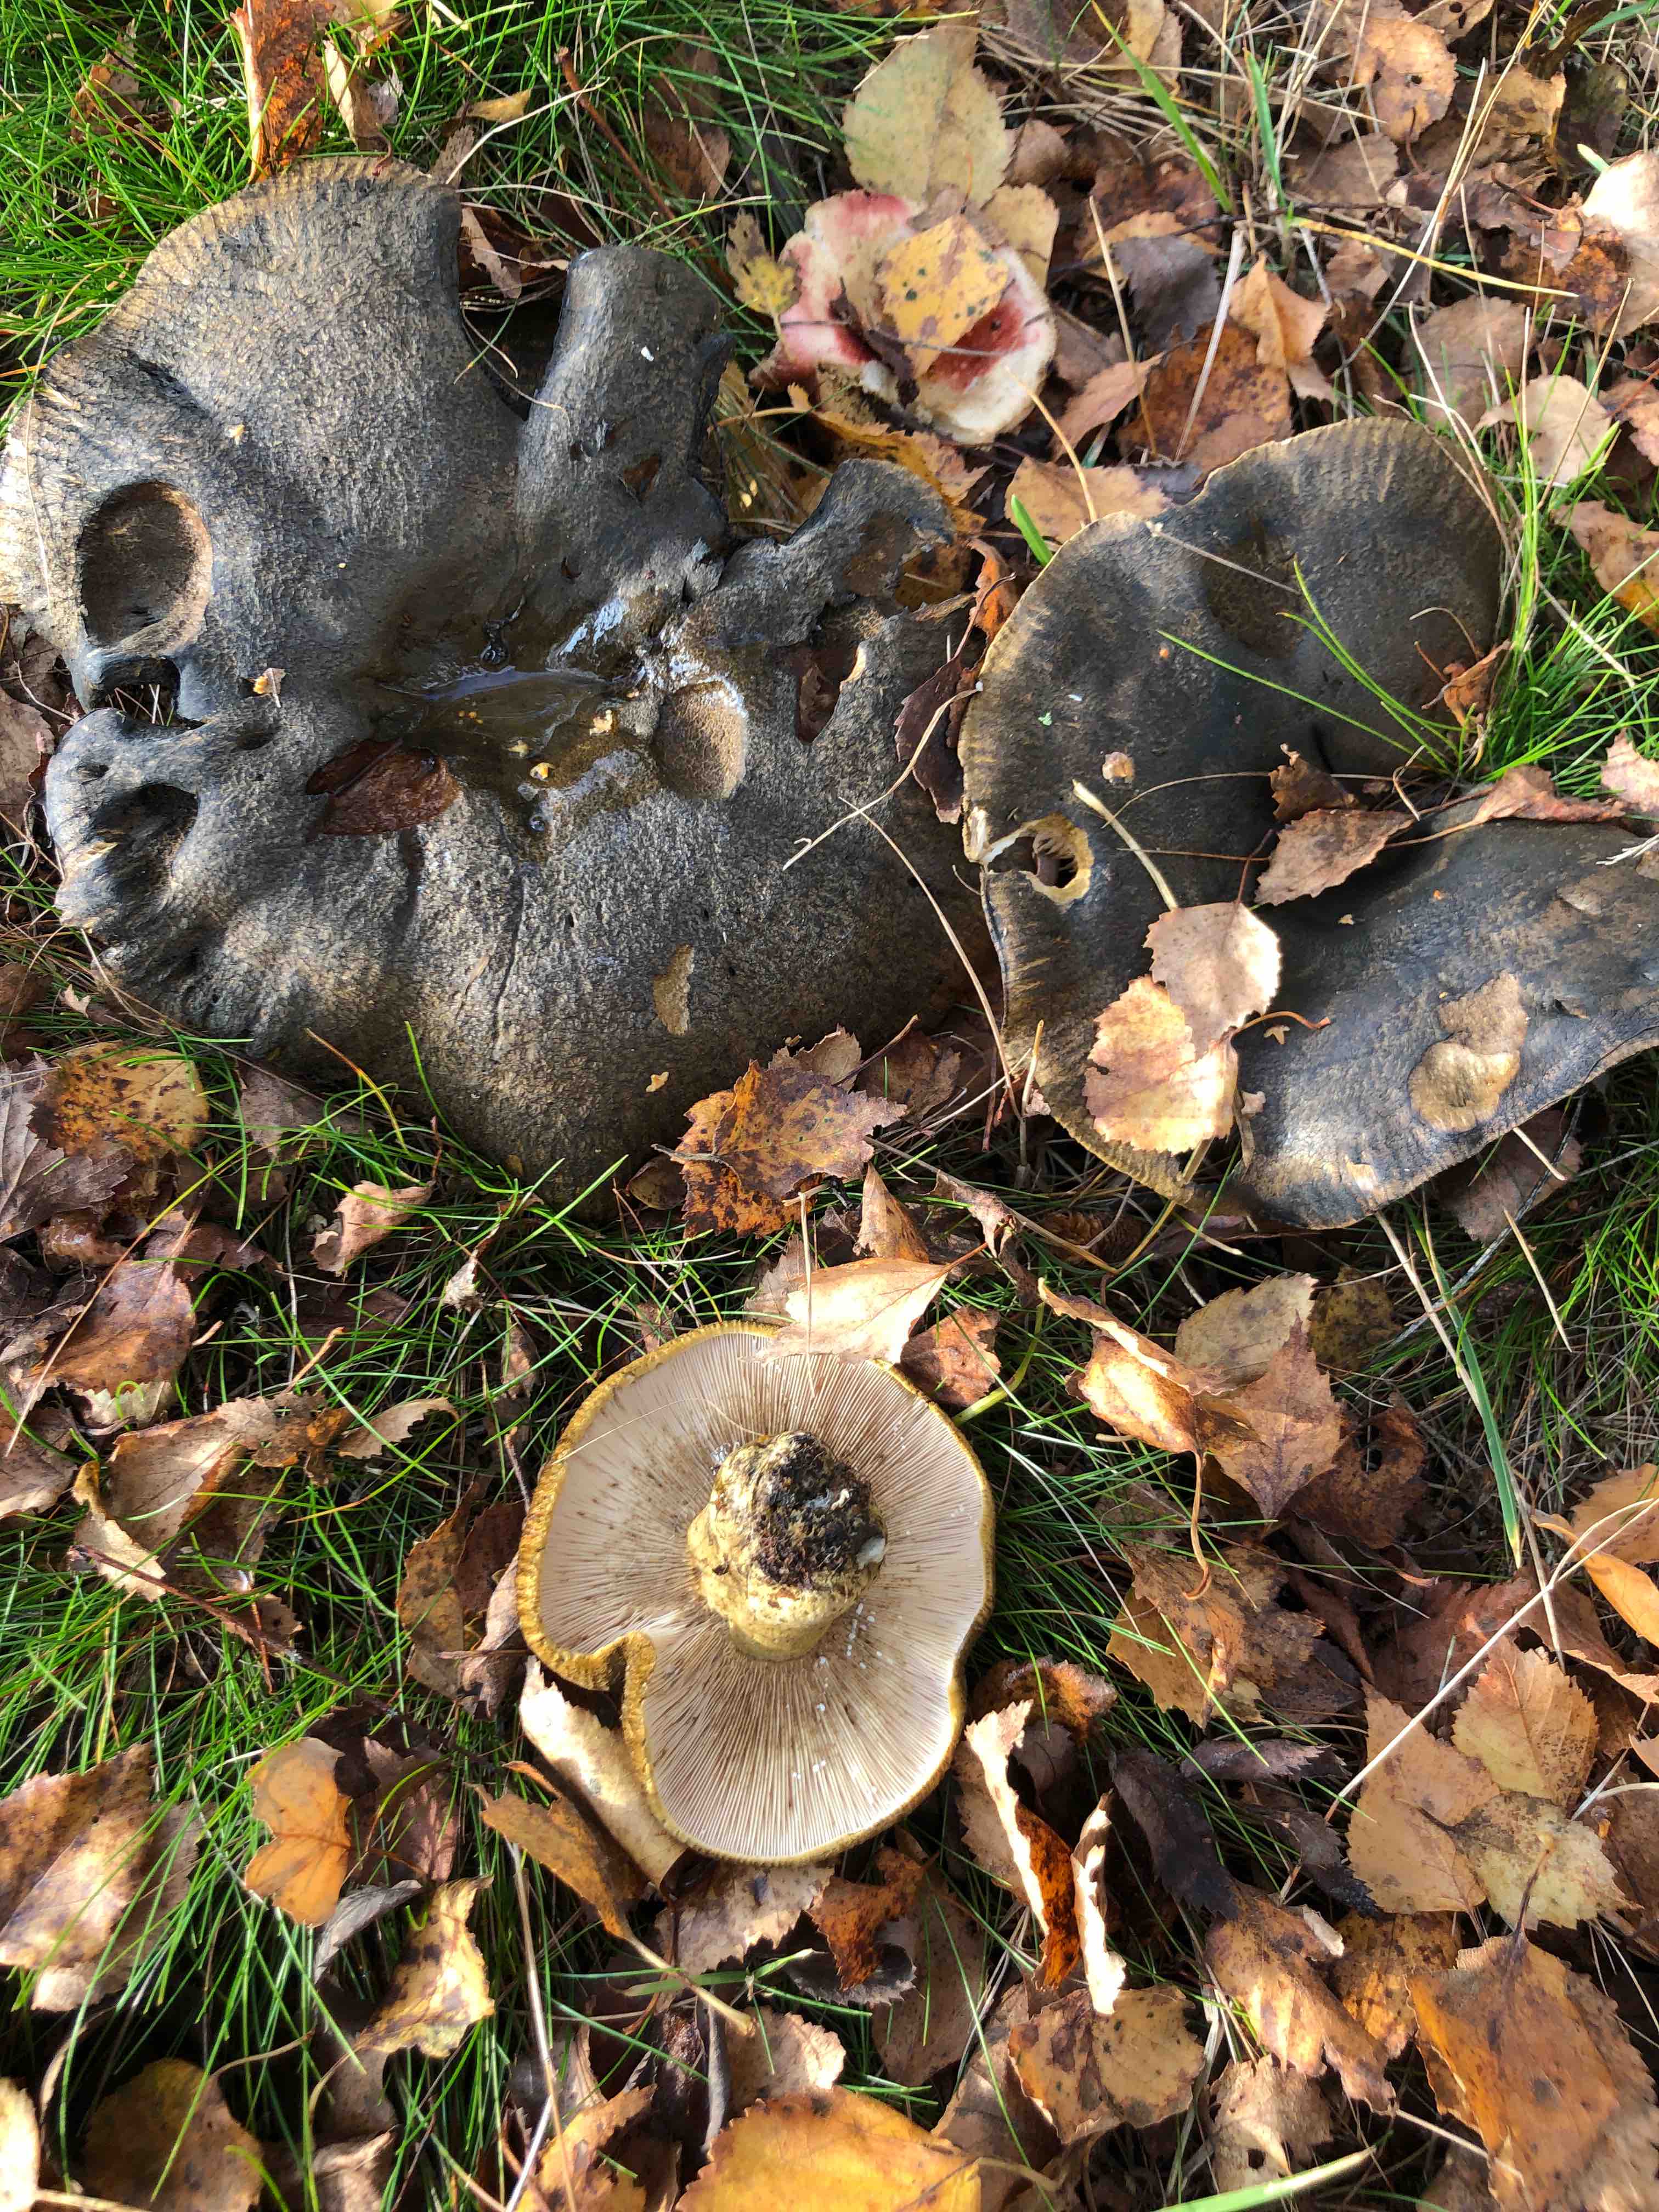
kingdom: Fungi
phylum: Basidiomycota
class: Agaricomycetes
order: Russulales
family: Russulaceae
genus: Lactarius
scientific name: Lactarius necator
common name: manddraber-mælkehat
